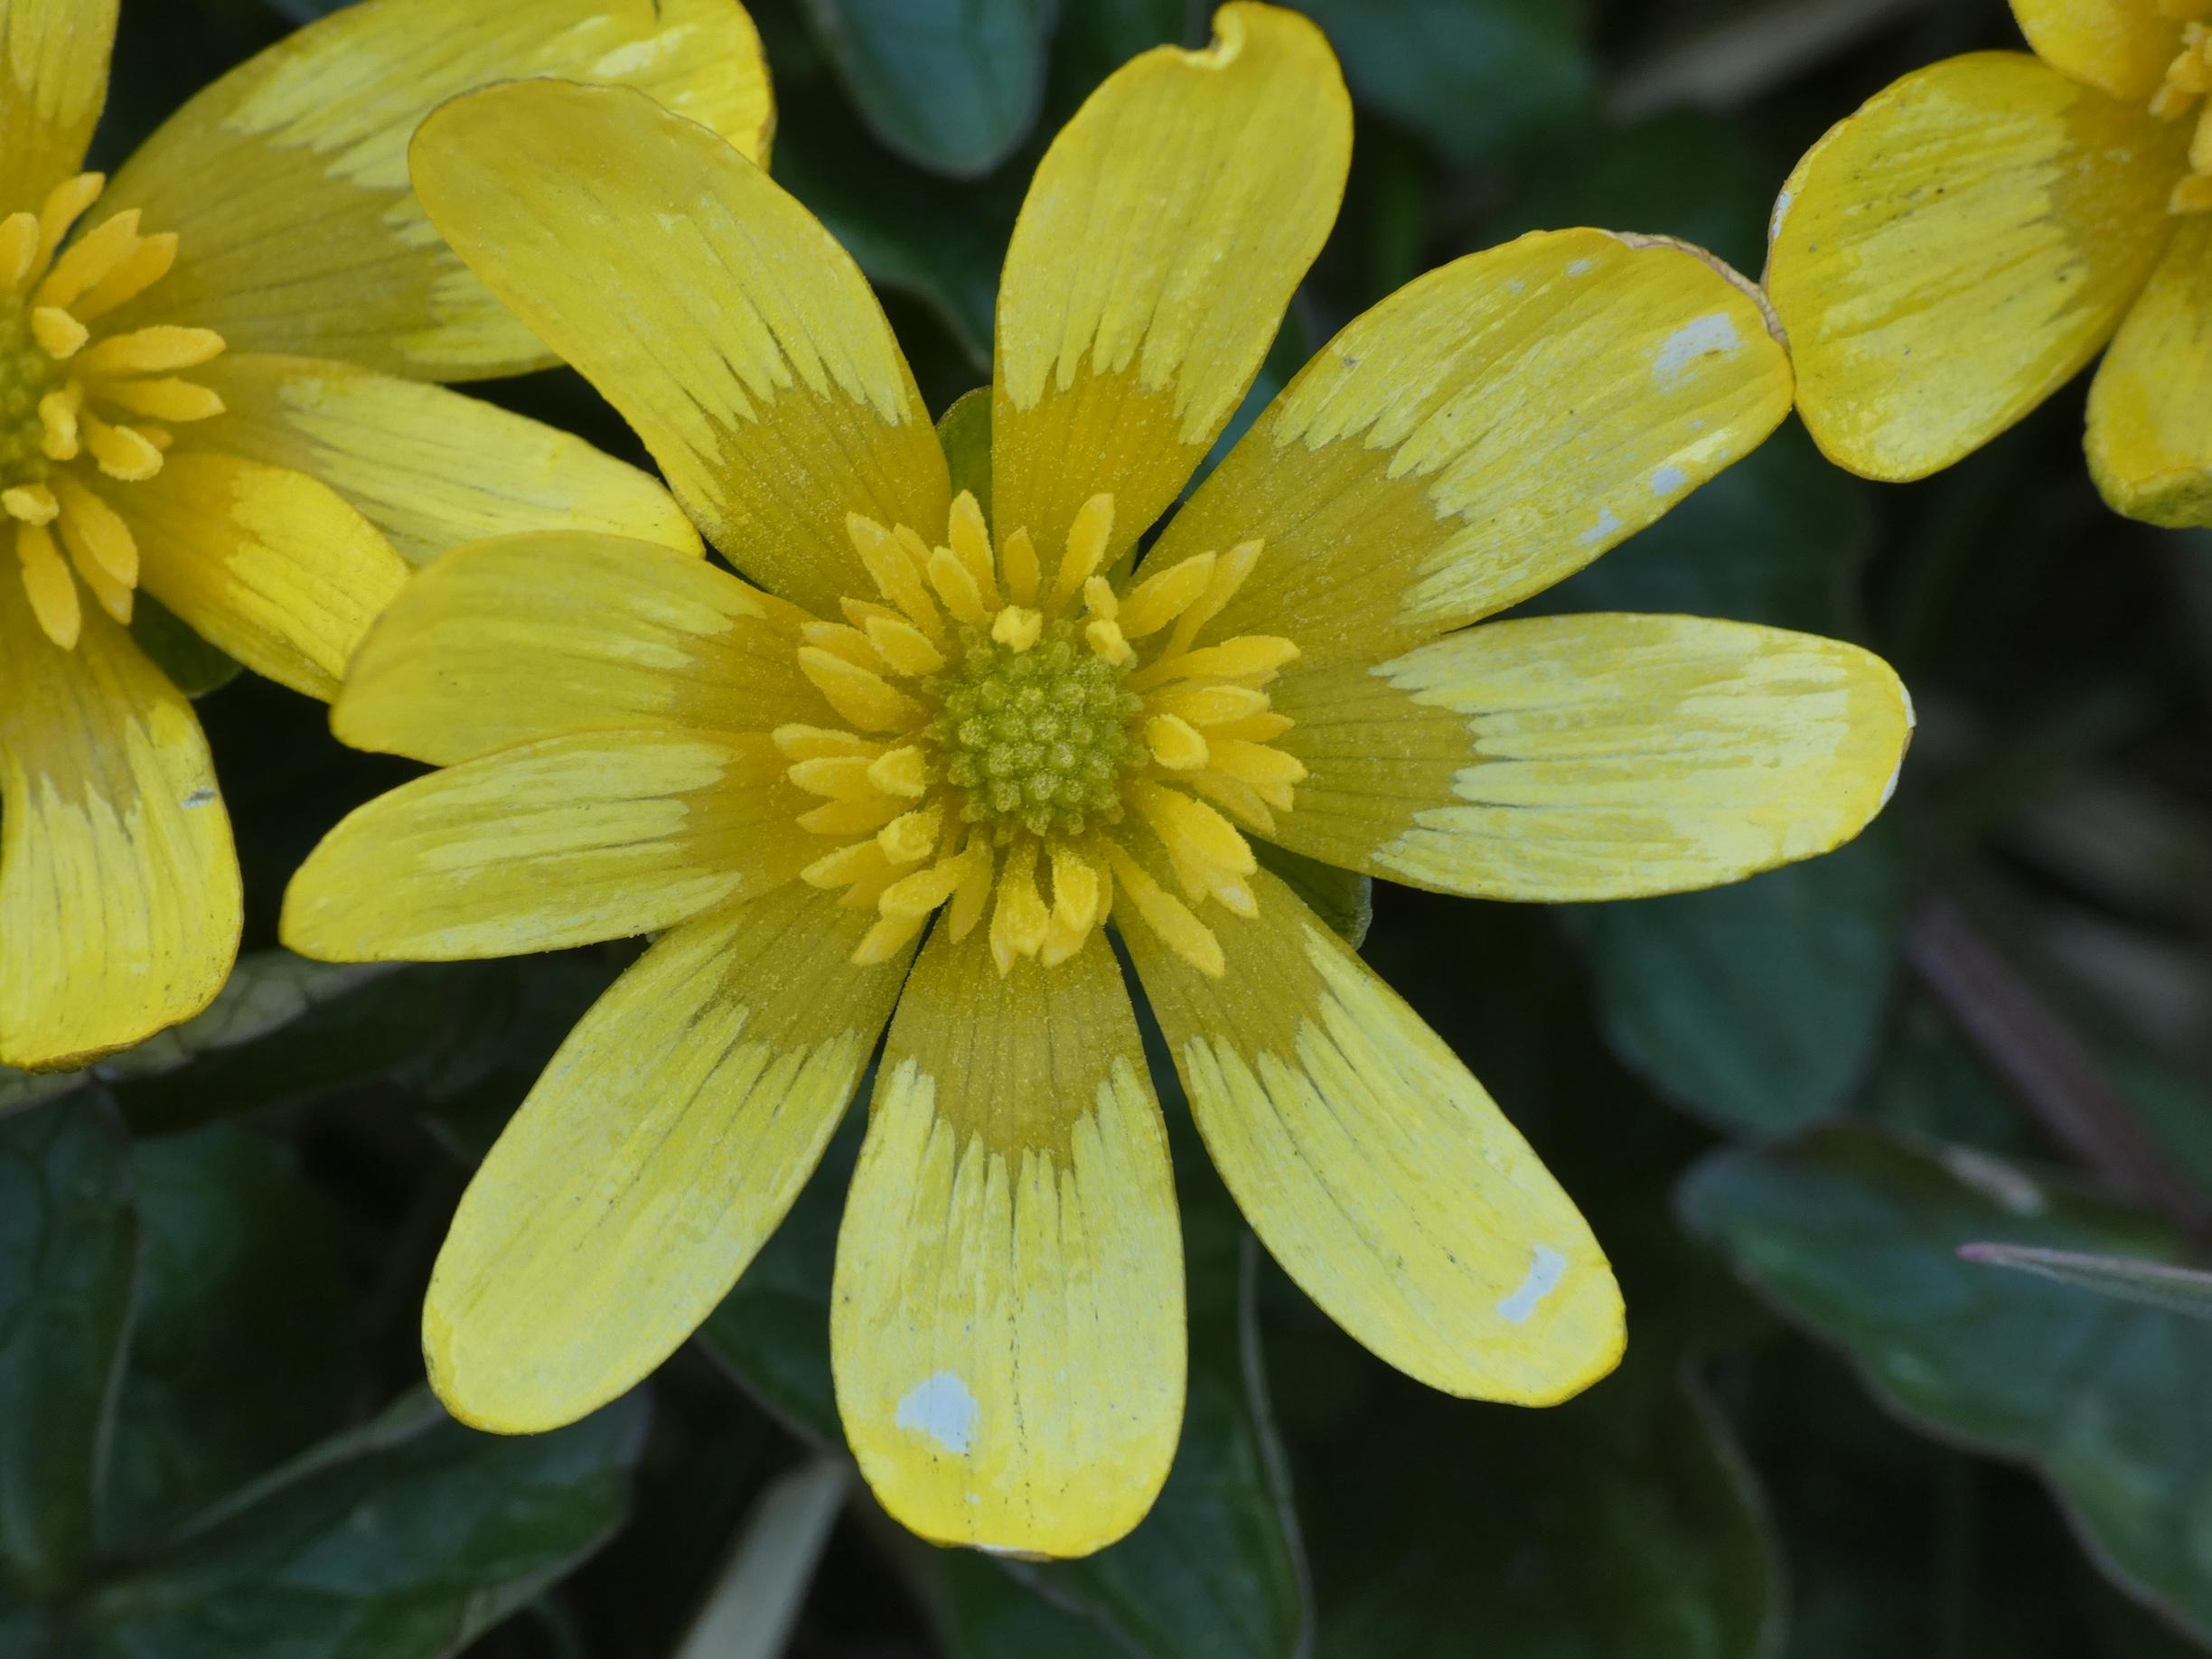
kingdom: Plantae
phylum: Tracheophyta
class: Magnoliopsida
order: Ranunculales
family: Ranunculaceae
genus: Ficaria
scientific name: Ficaria verna
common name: Vorterod
